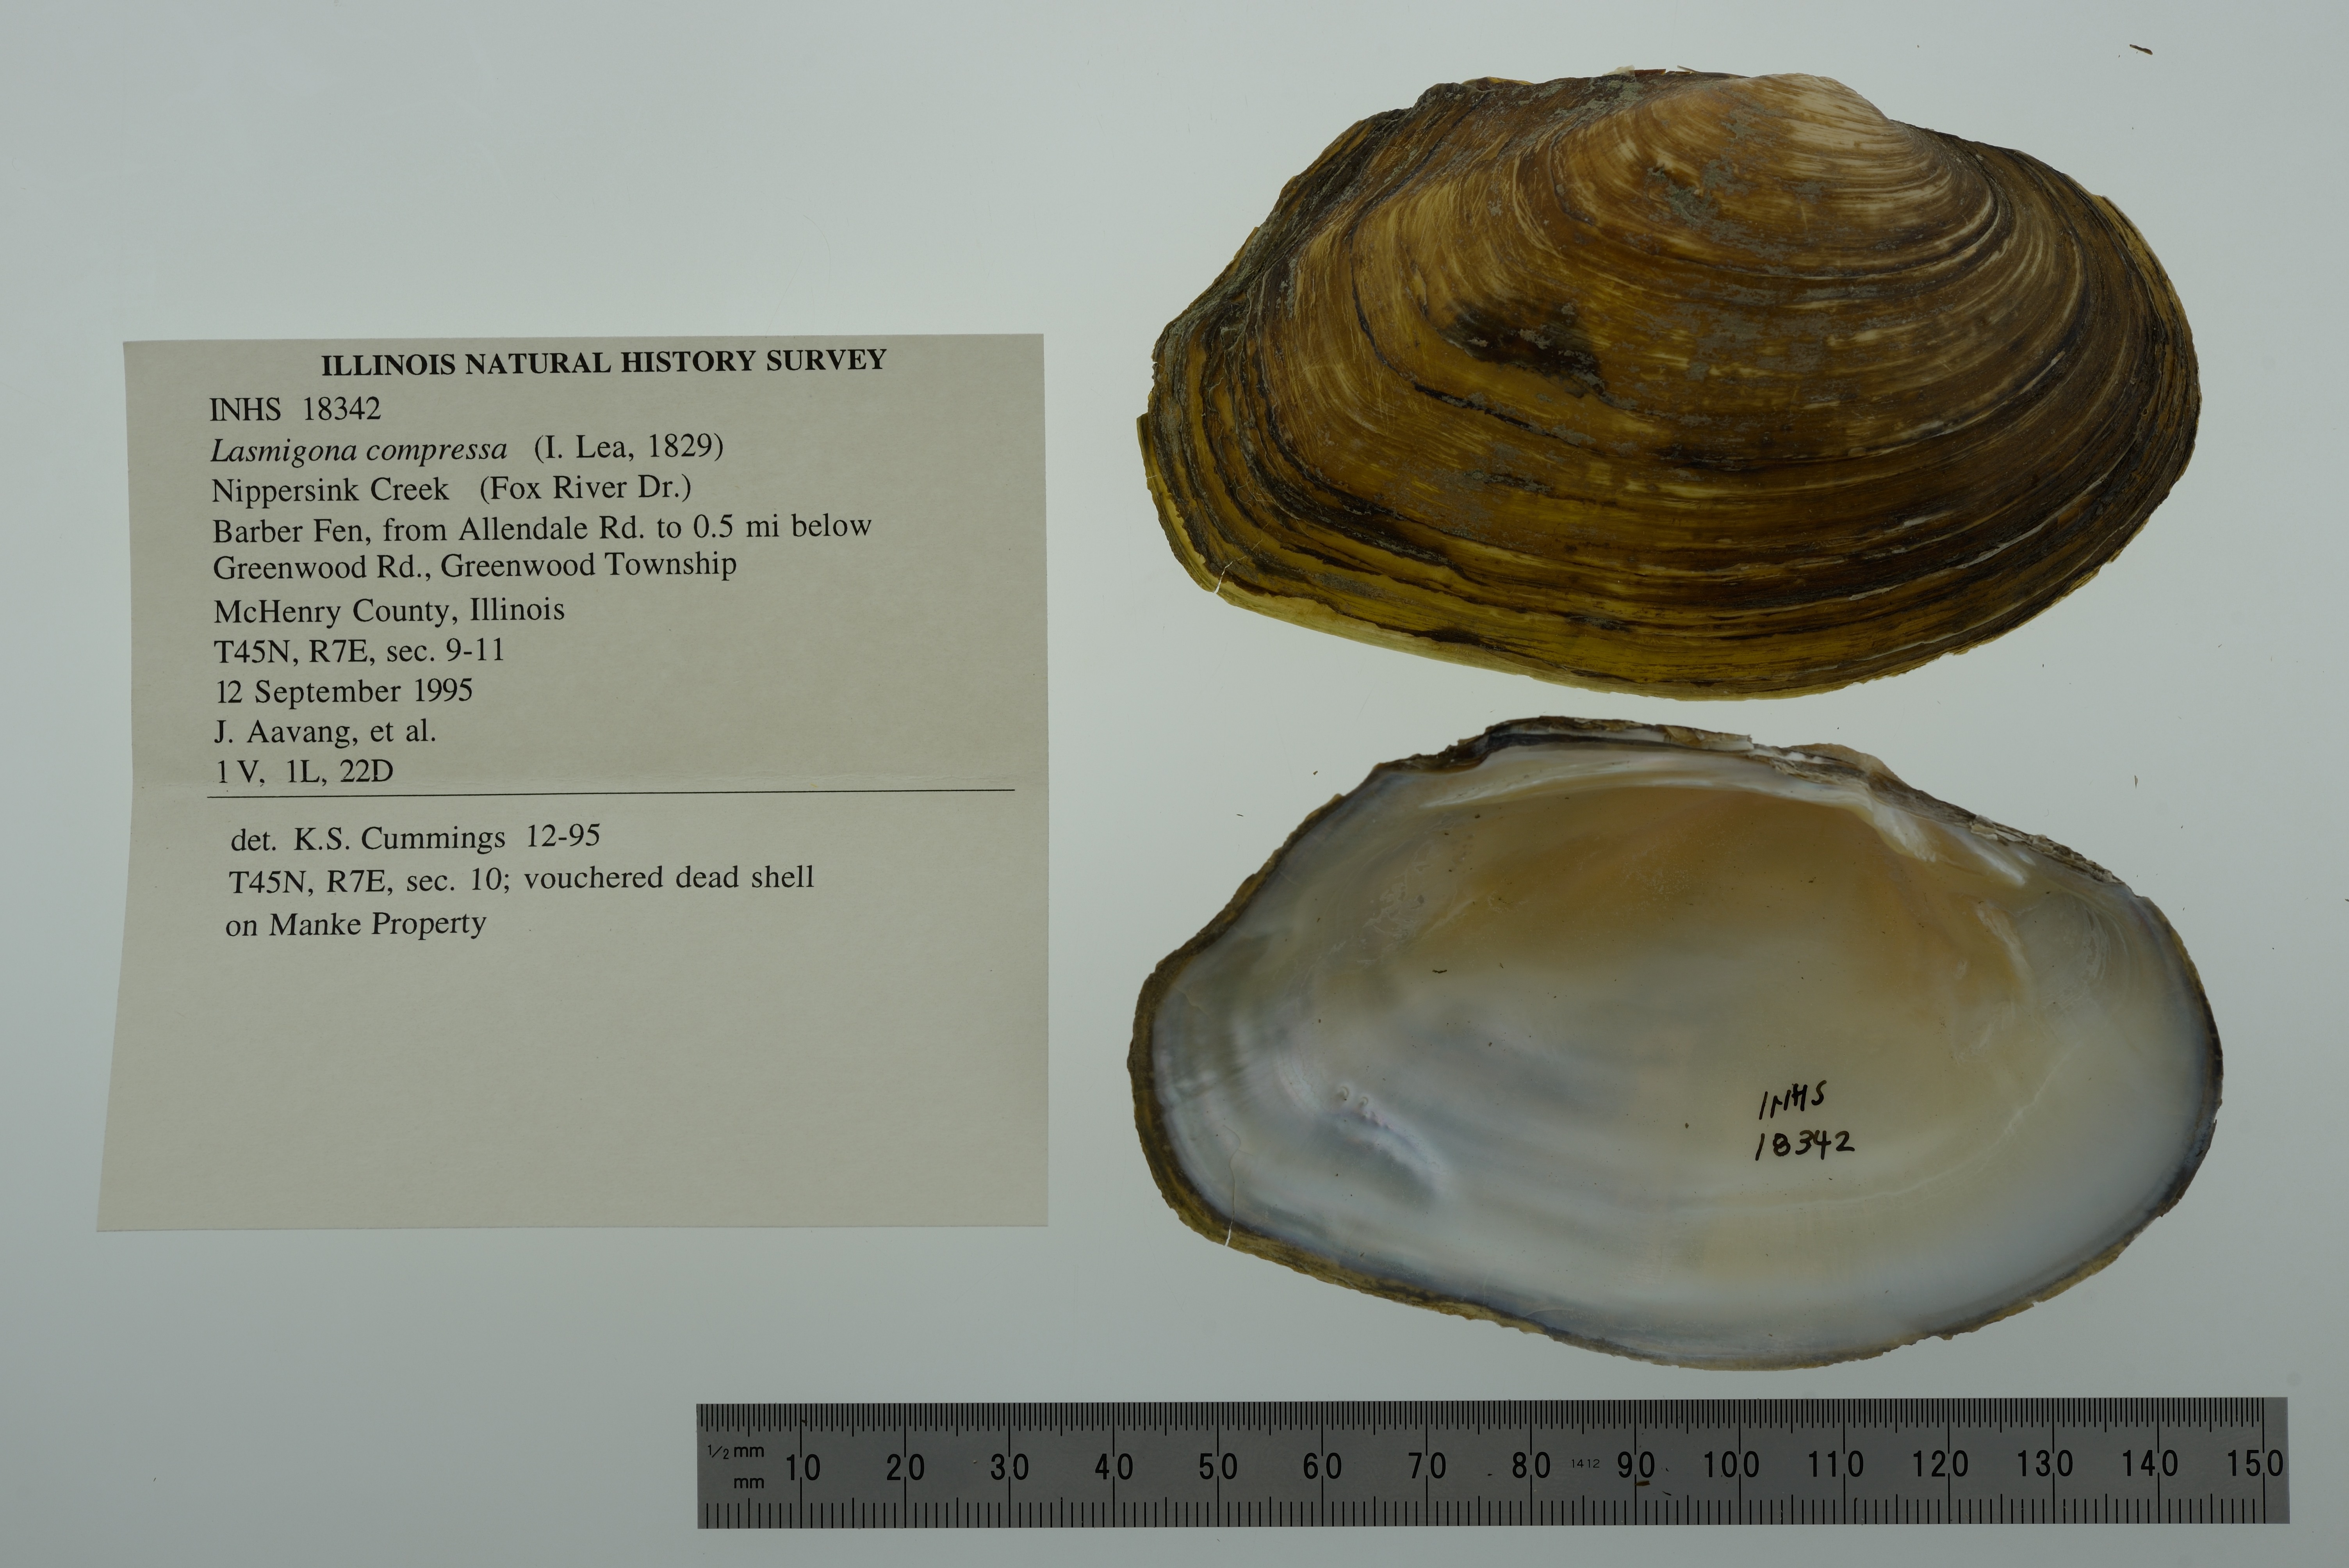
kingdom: Animalia
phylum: Mollusca
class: Bivalvia
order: Unionida
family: Unionidae
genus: Lasmigona
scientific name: Lasmigona compressa
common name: Creek heelsplitter
